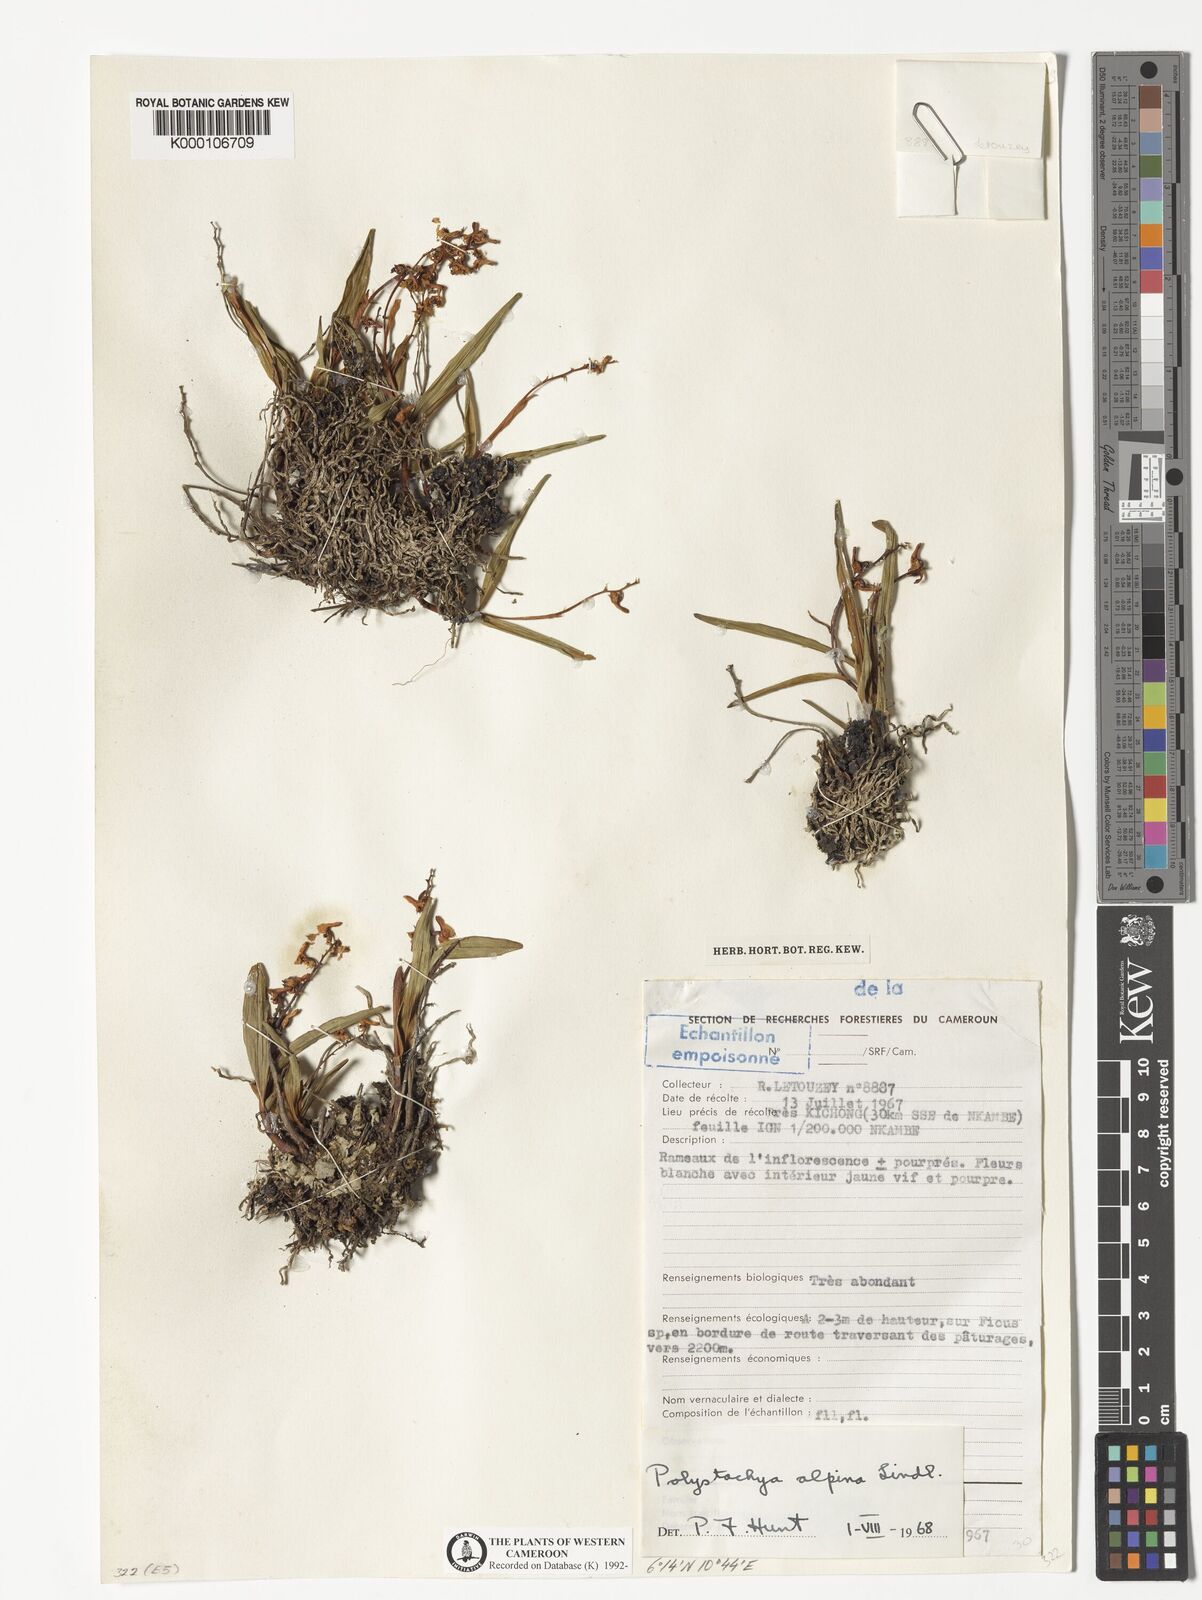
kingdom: Plantae
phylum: Tracheophyta
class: Liliopsida
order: Asparagales
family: Orchidaceae
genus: Polystachya
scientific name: Polystachya alpina
